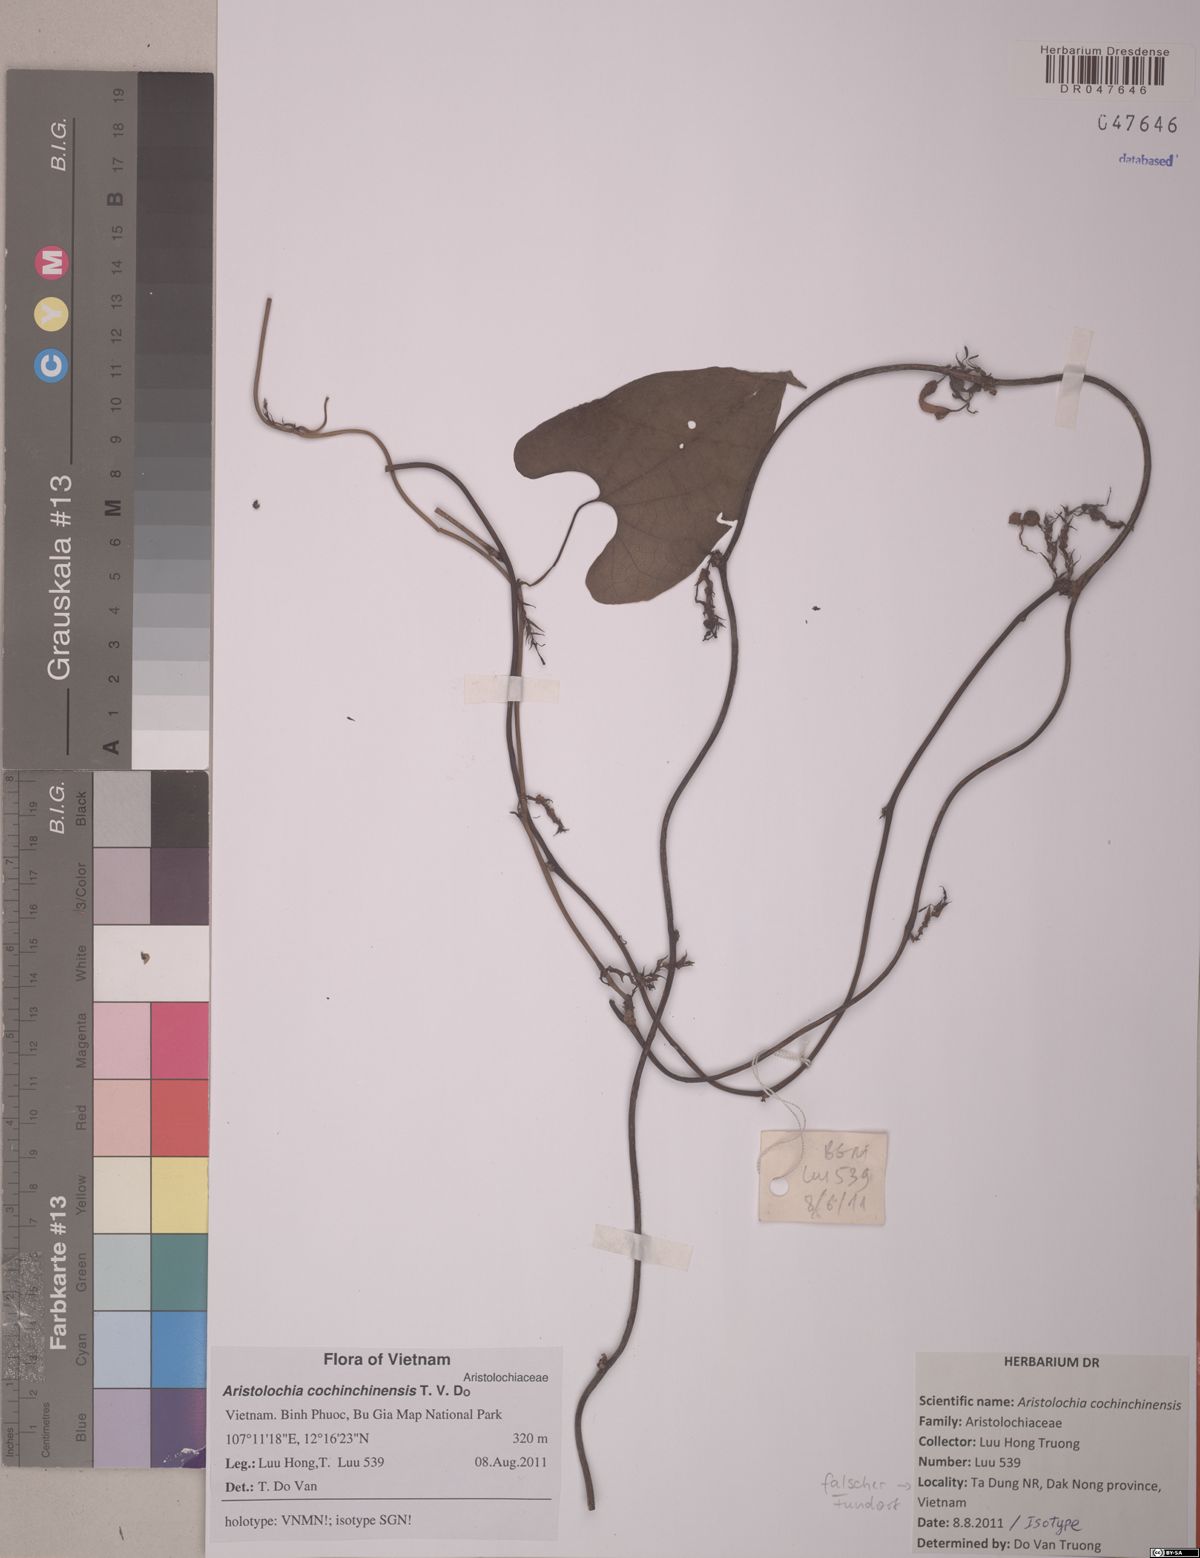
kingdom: Plantae
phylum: Tracheophyta
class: Magnoliopsida
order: Piperales
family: Aristolochiaceae
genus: Aristolochia
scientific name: Aristolochia cochinchinensis
